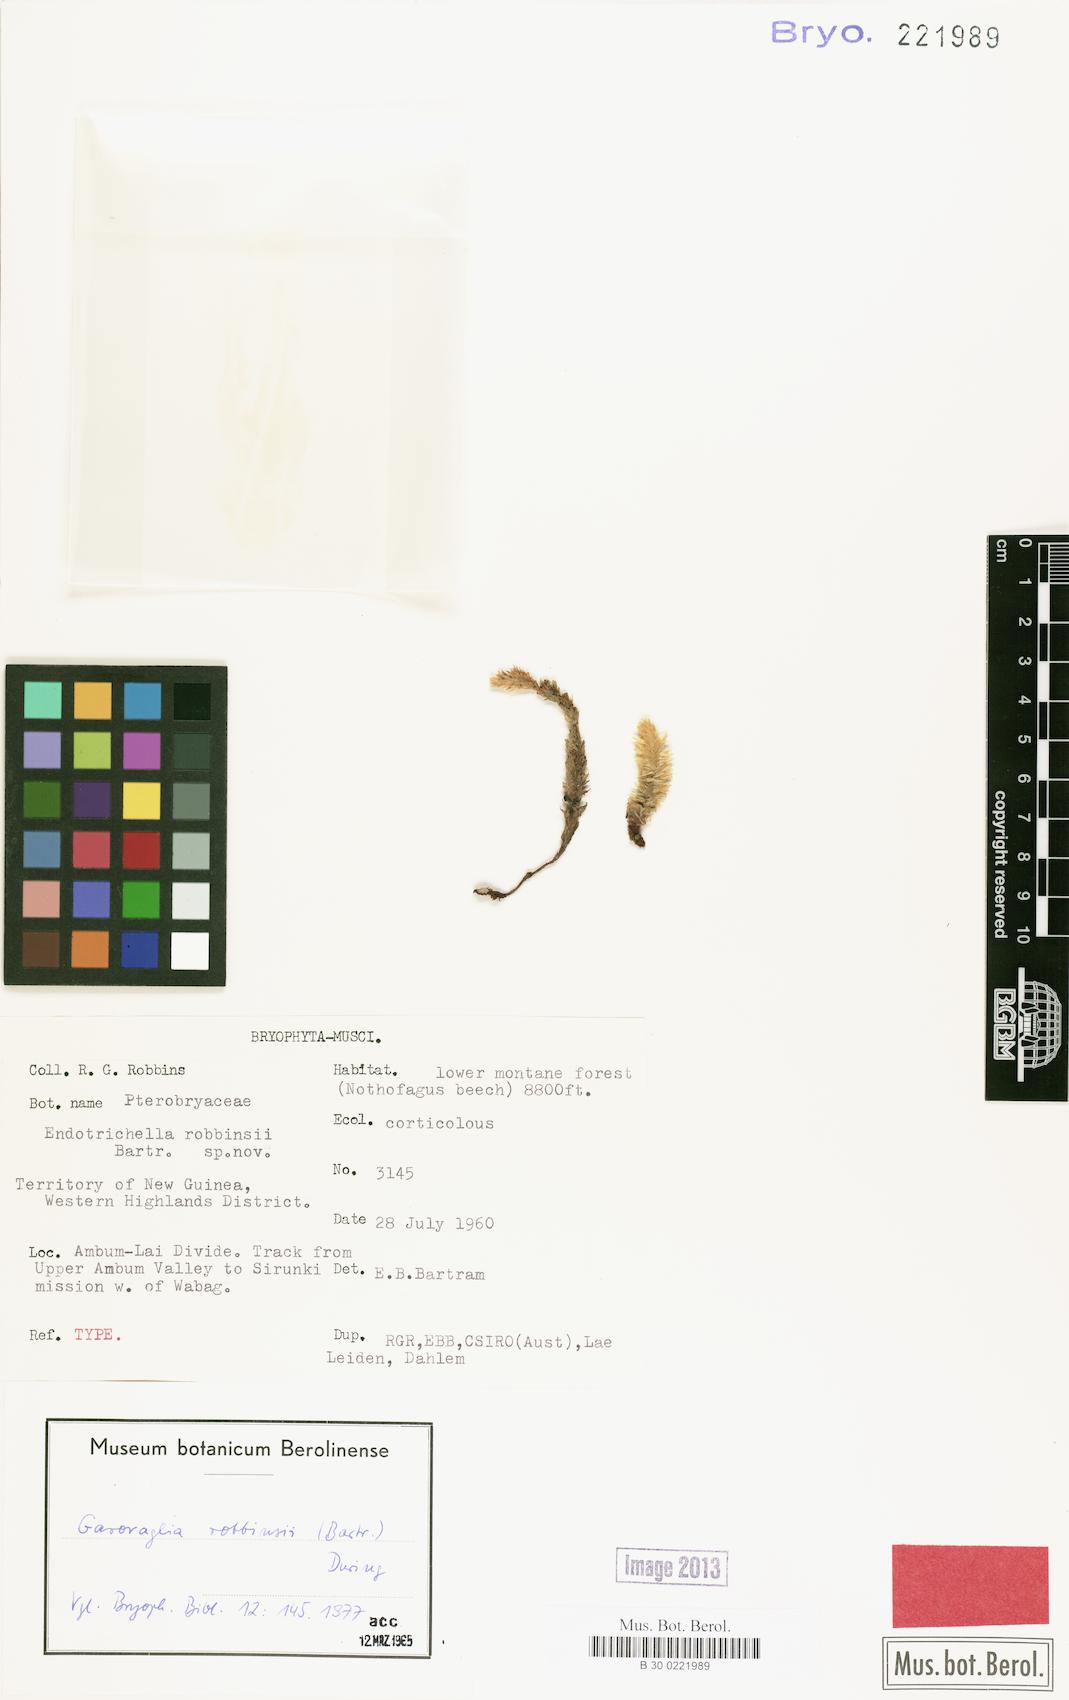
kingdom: Plantae
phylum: Bryophyta
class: Bryopsida
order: Ptychomniales
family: Ptychomniaceae
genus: Garovaglia
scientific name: Garovaglia robbinsii
